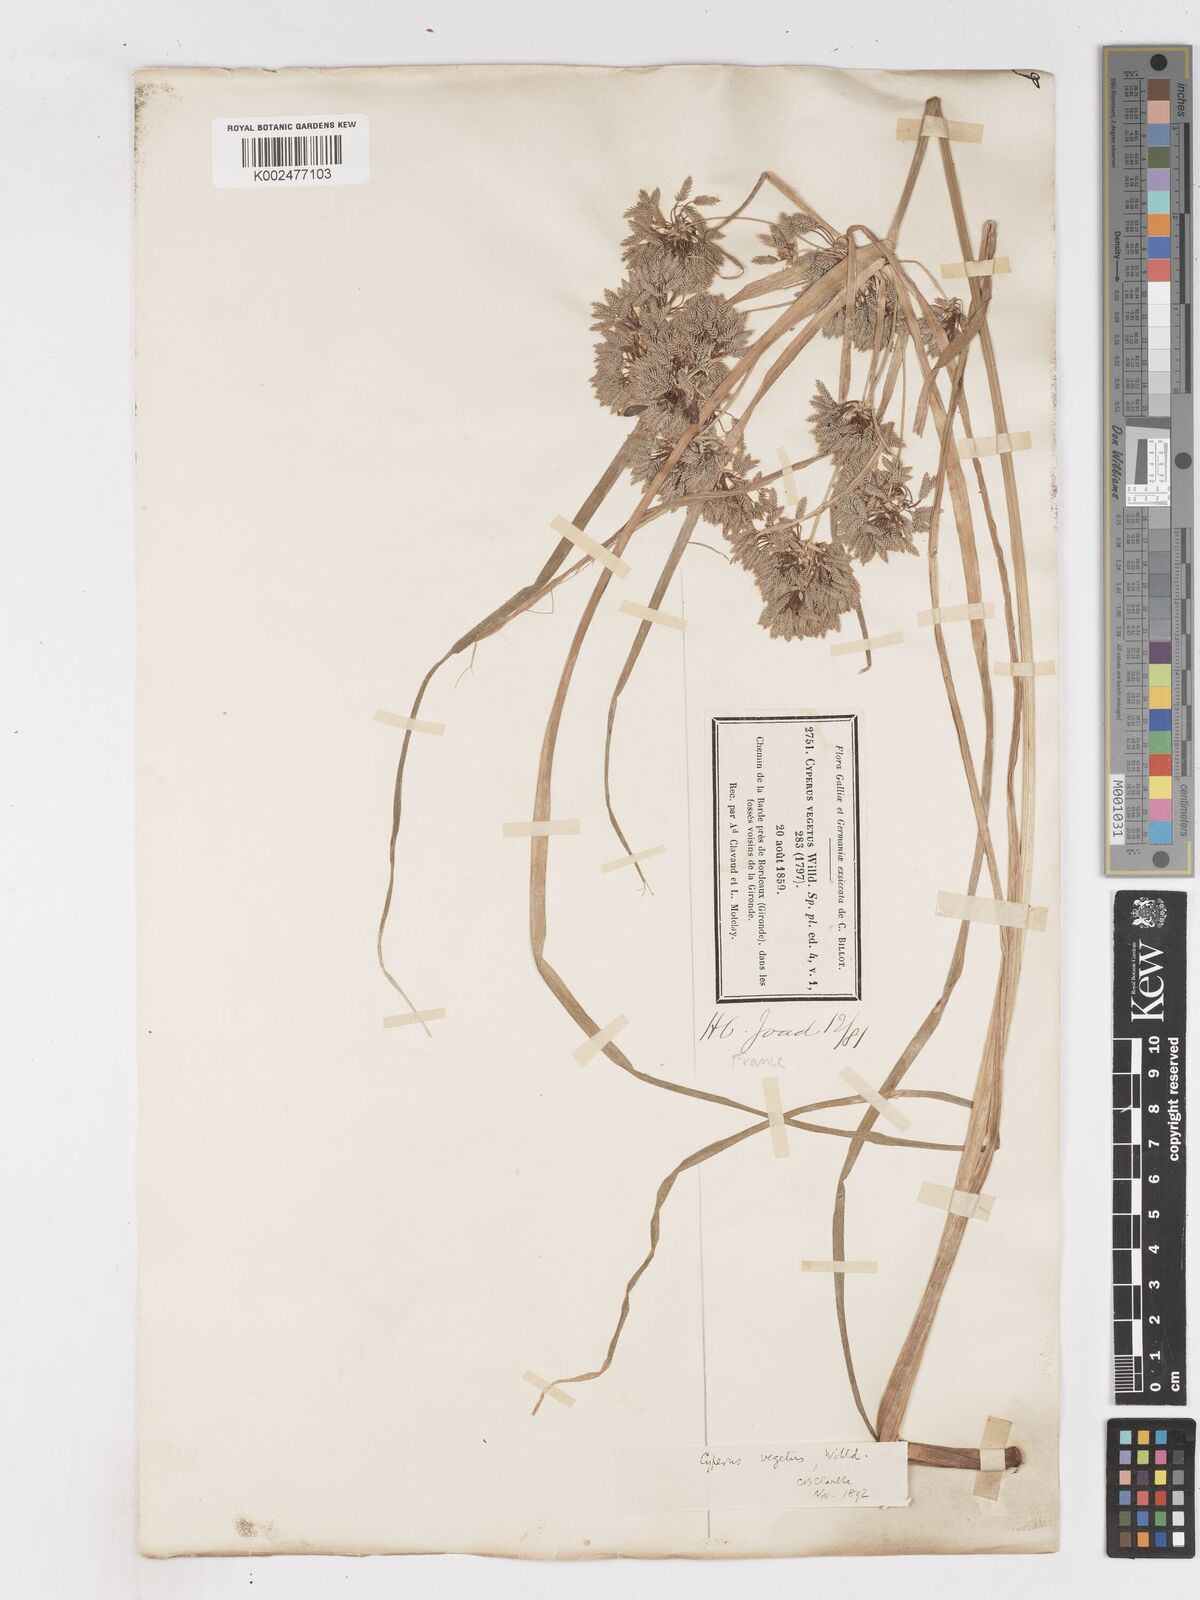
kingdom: Plantae
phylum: Tracheophyta
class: Liliopsida
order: Poales
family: Cyperaceae
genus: Cyperus
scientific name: Cyperus eragrostis
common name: Tall flatsedge
